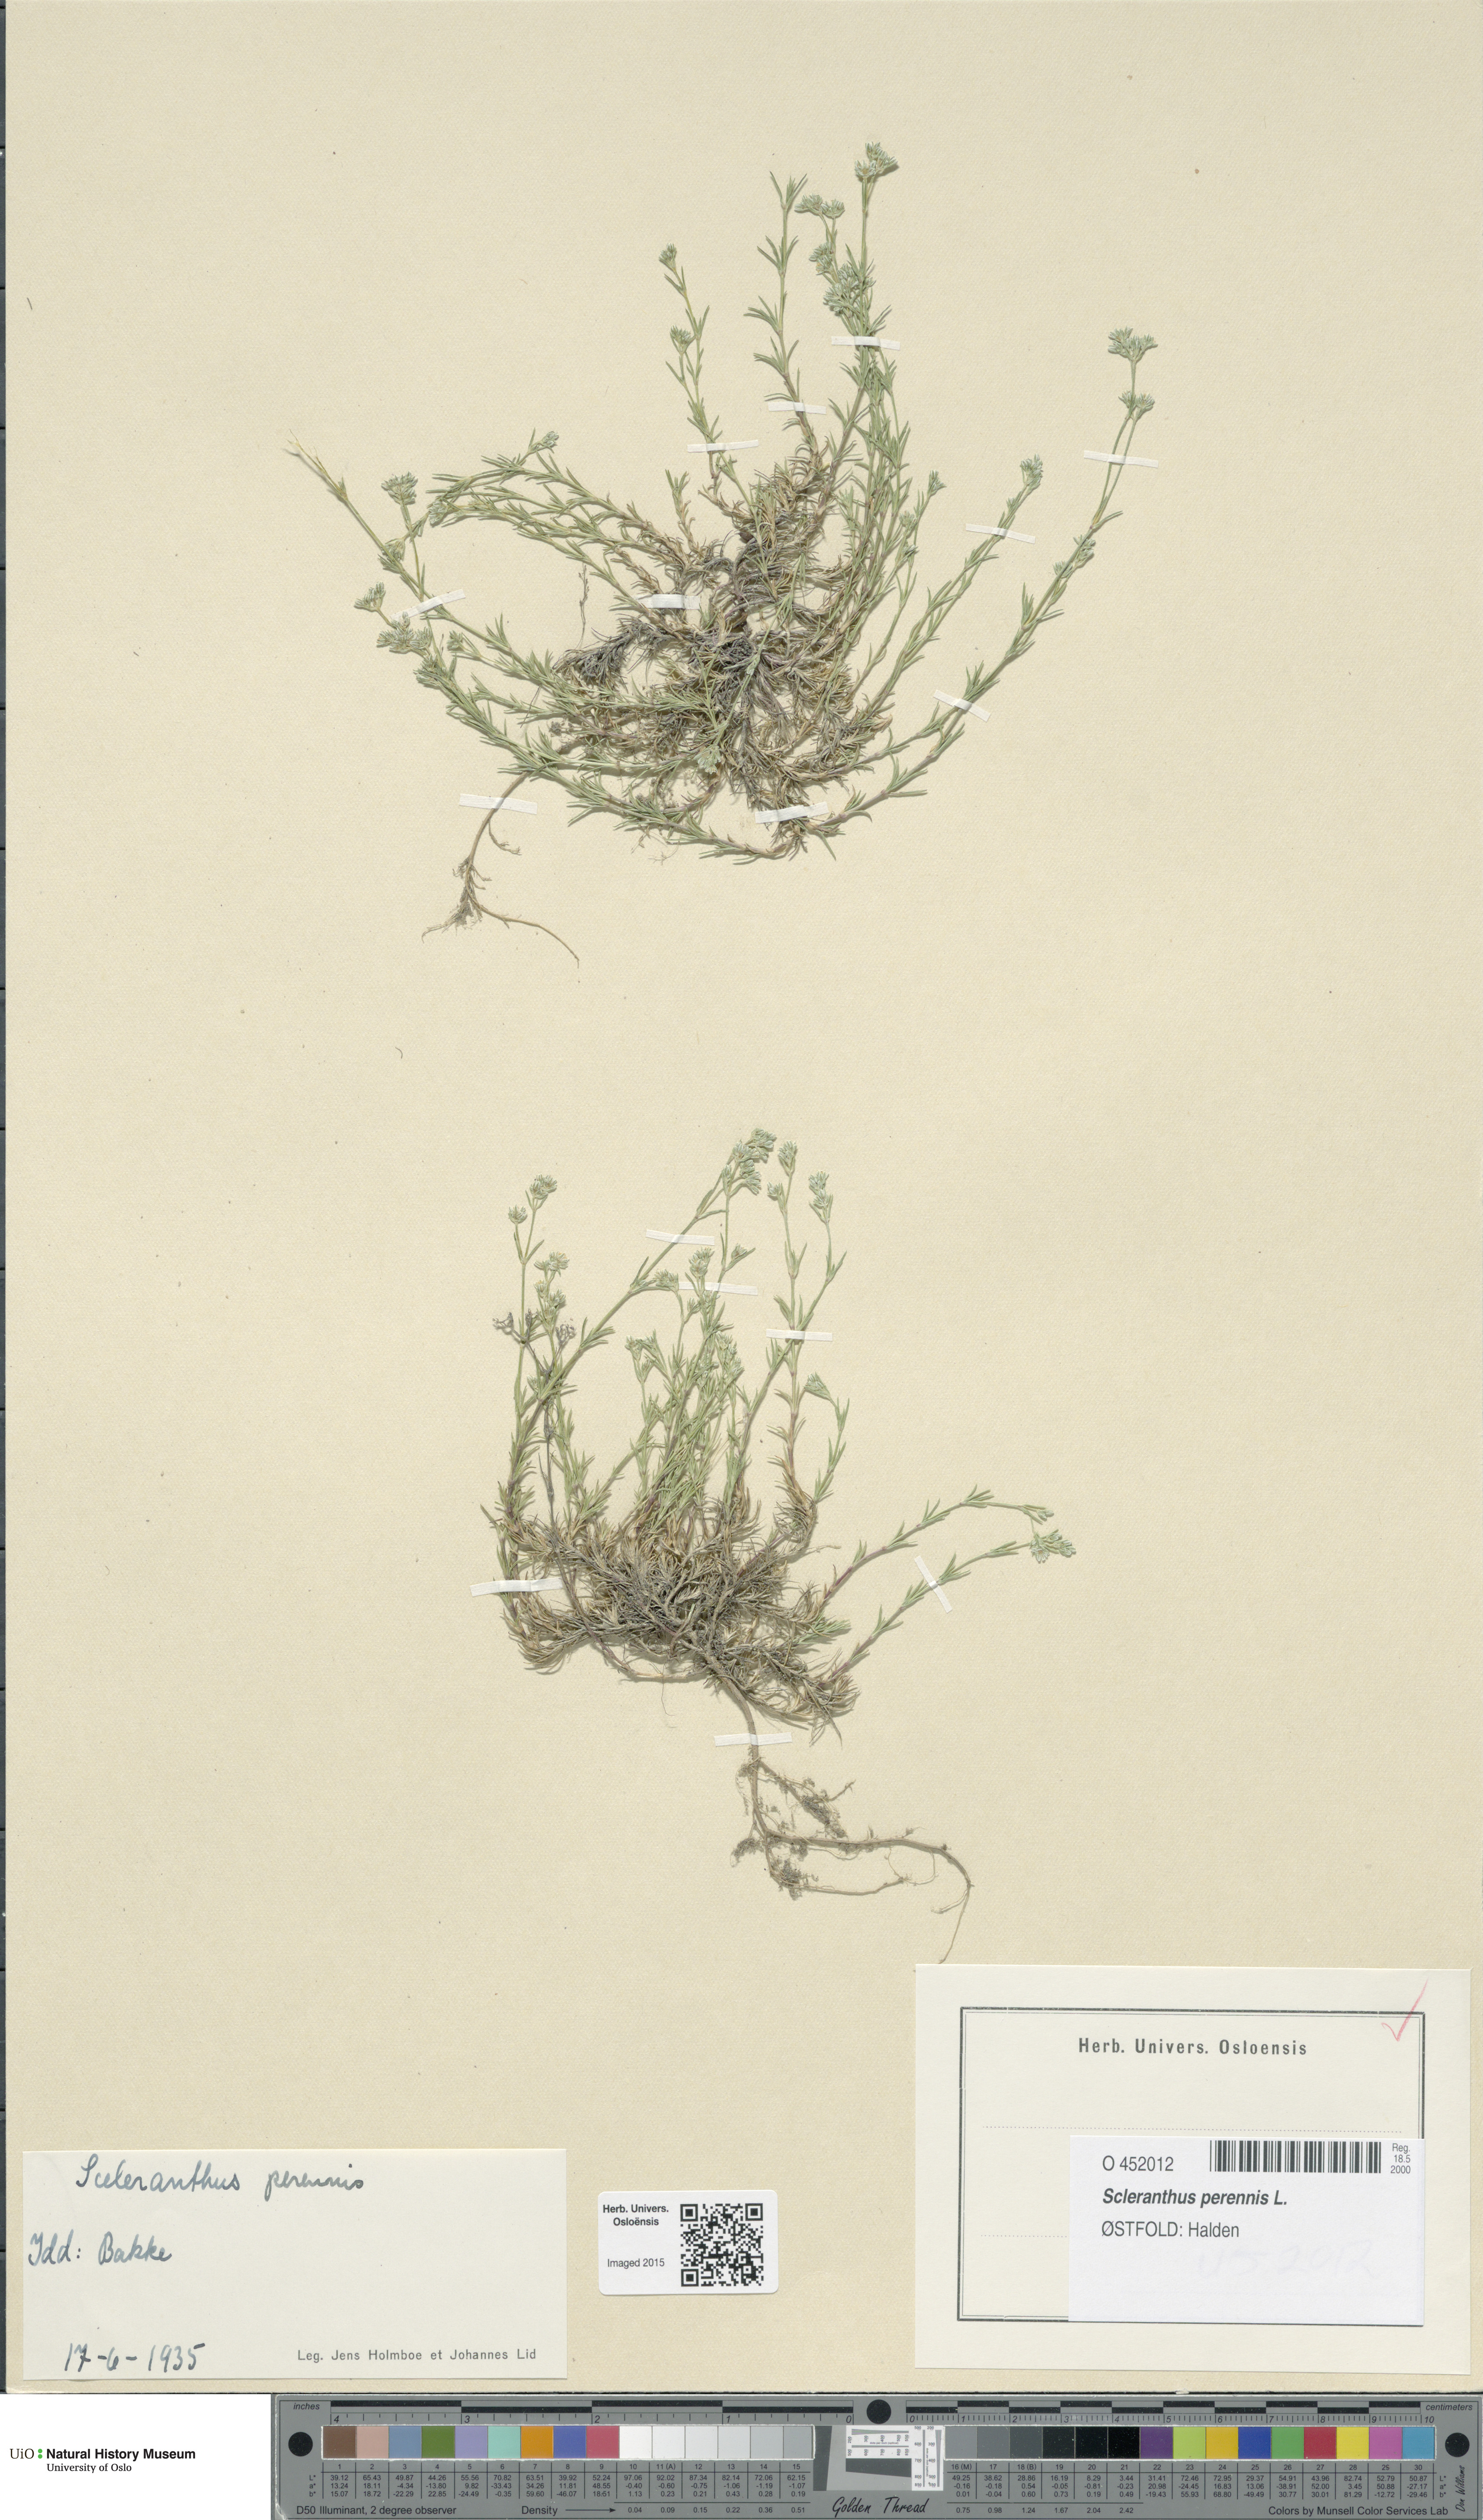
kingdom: Plantae
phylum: Tracheophyta
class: Magnoliopsida
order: Caryophyllales
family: Caryophyllaceae
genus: Scleranthus
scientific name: Scleranthus perennis
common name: Perennial knawel
